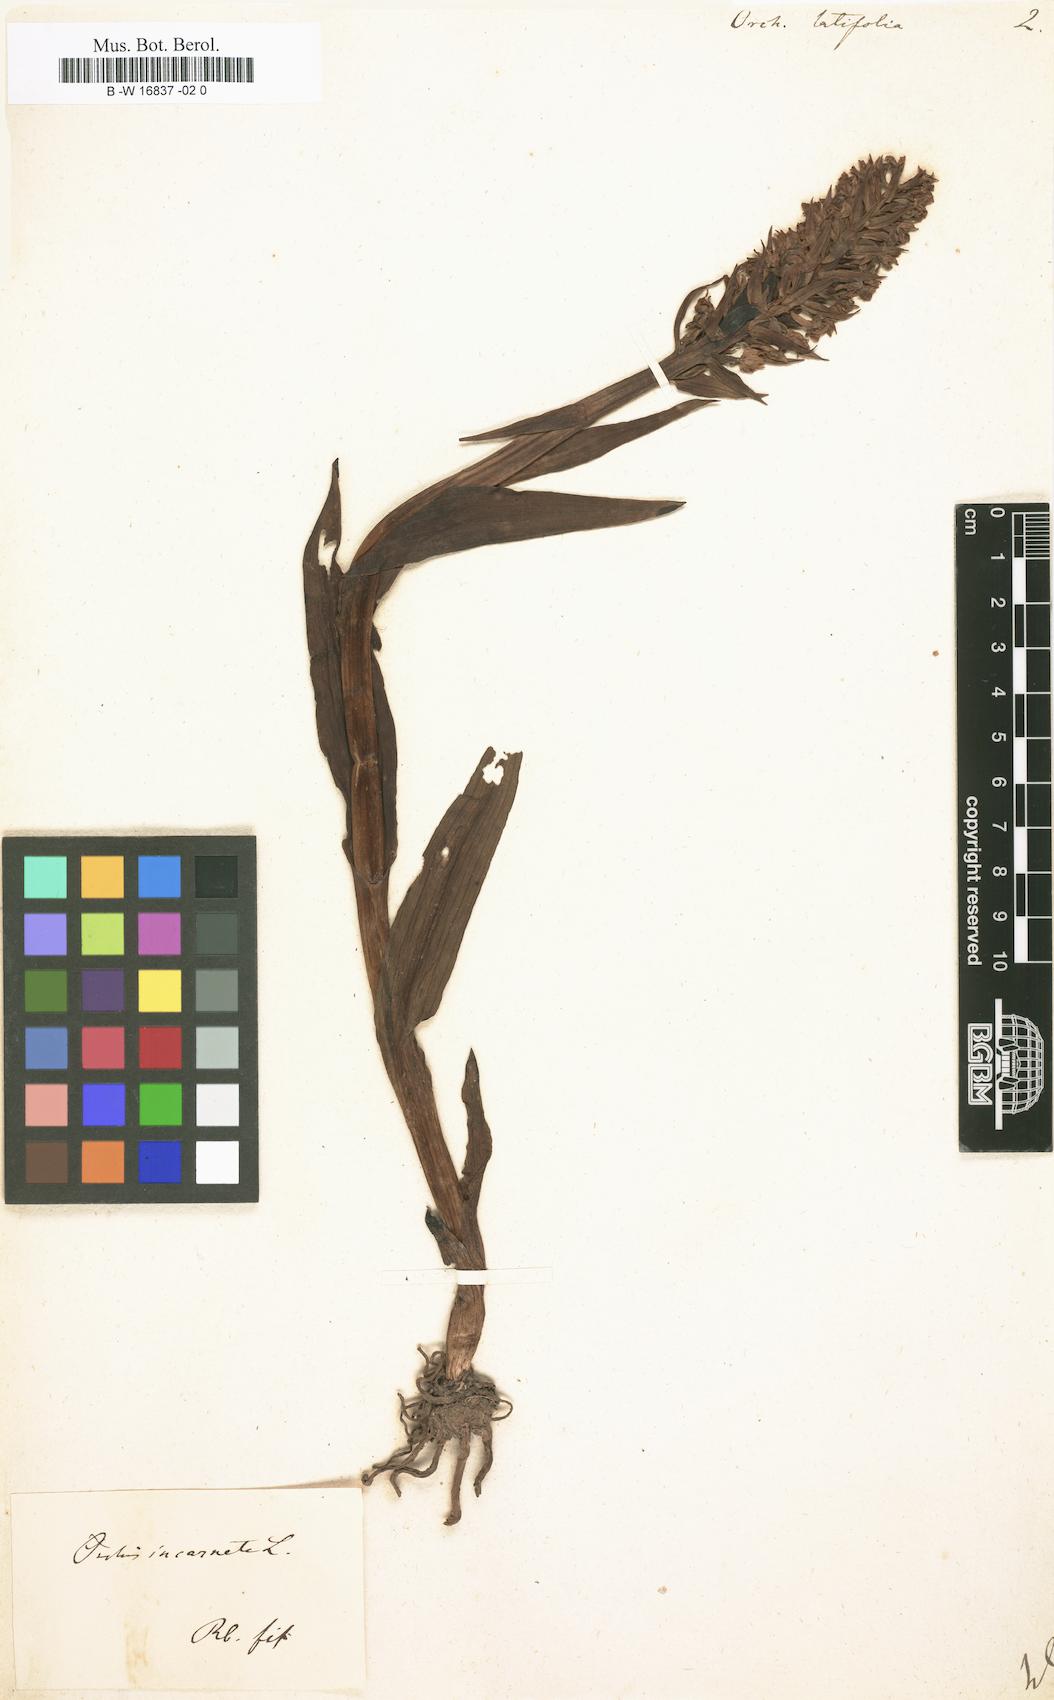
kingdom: Plantae
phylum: Tracheophyta
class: Liliopsida
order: Asparagales
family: Orchidaceae
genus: Dactylorhiza
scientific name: Dactylorhiza incarnata
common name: Early marsh-orchid
